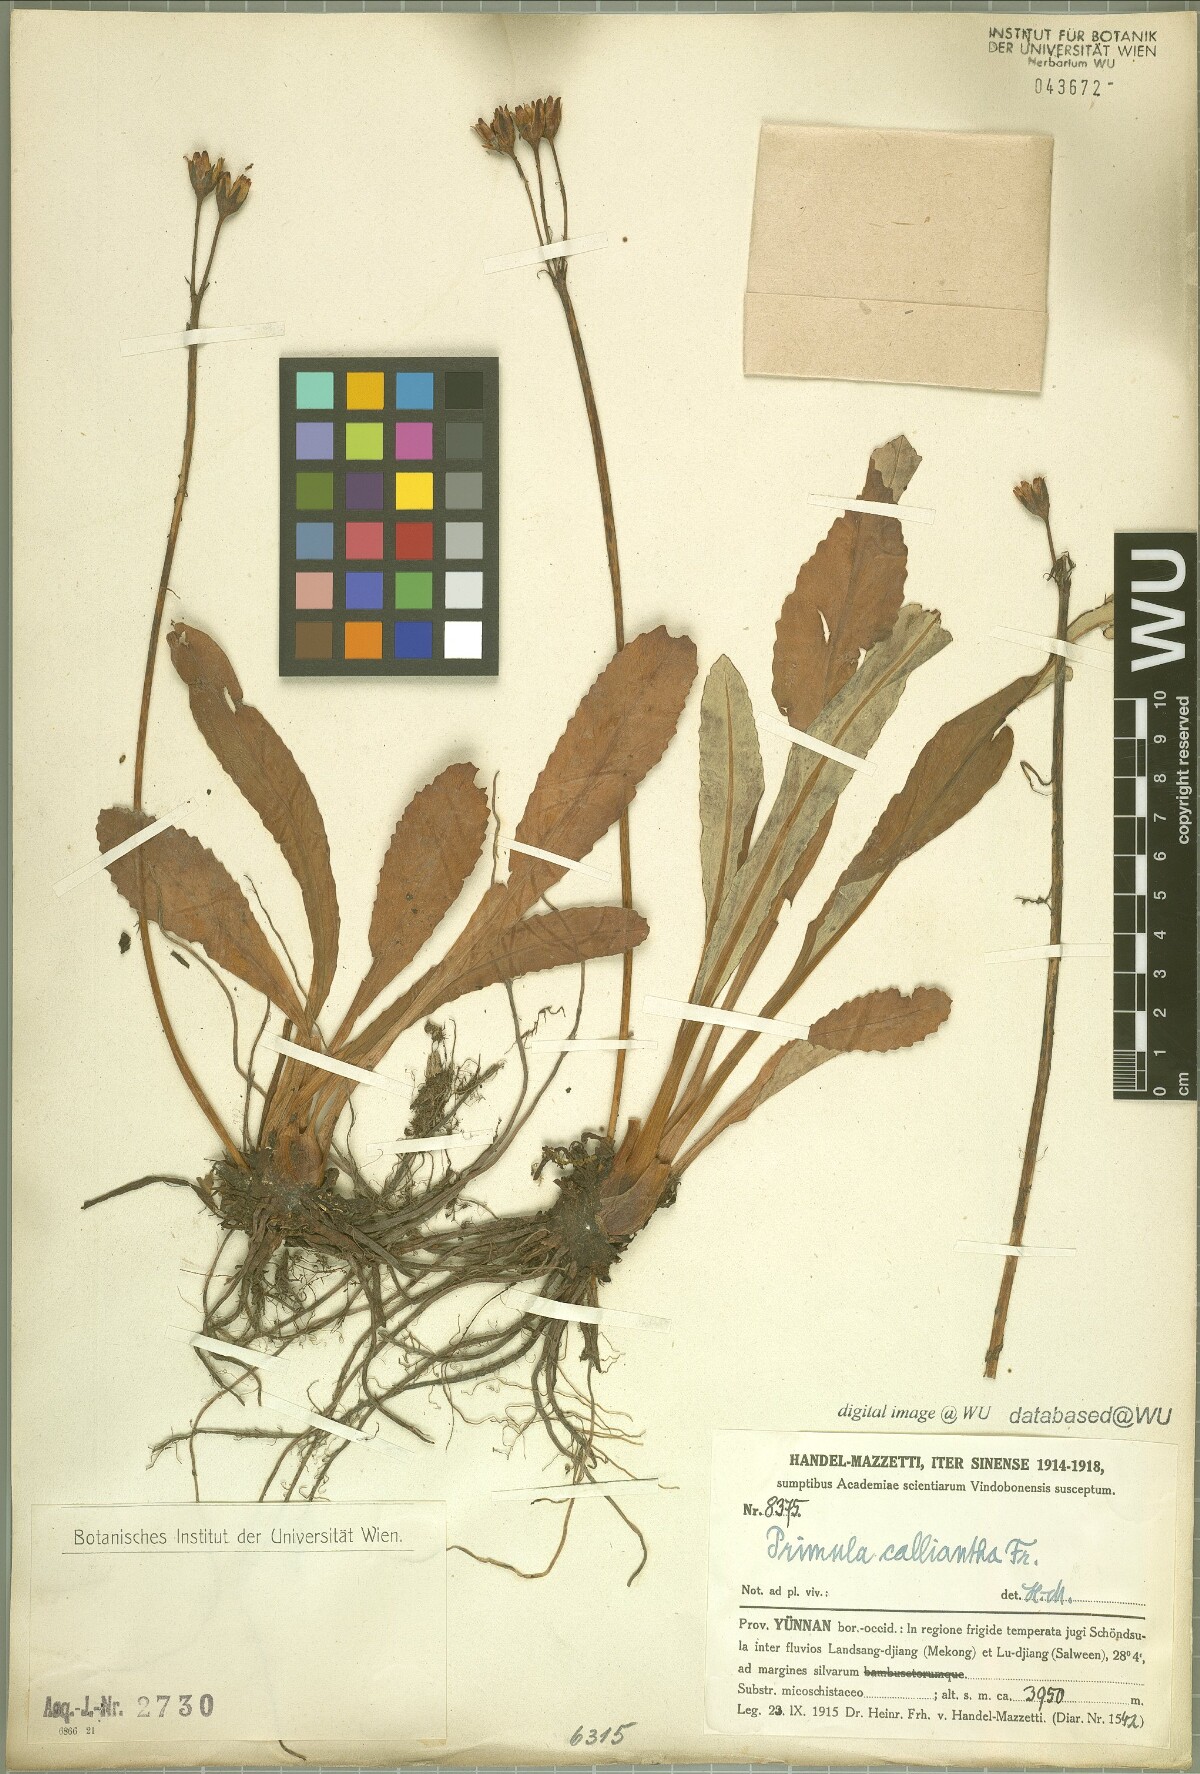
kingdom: Plantae
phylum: Tracheophyta
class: Magnoliopsida
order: Ericales
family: Primulaceae
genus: Primula
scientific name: Primula calliantha
